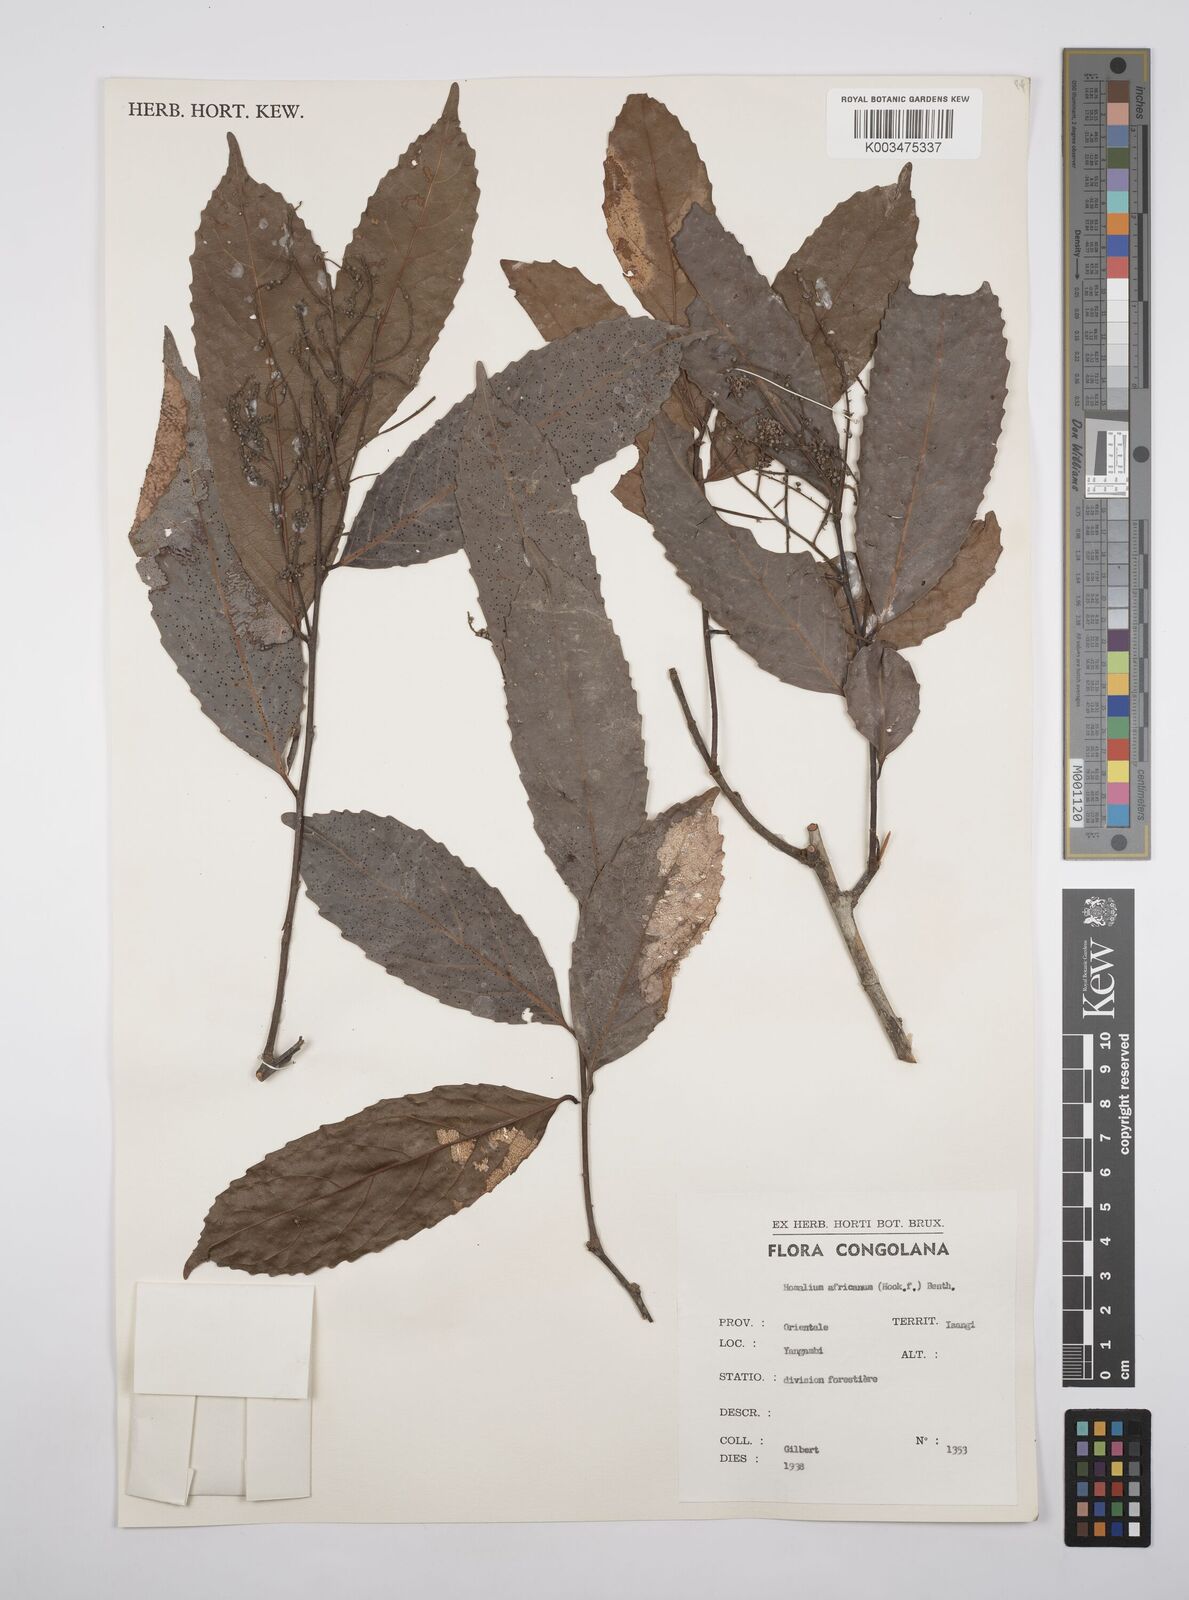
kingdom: Plantae
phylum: Tracheophyta
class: Magnoliopsida
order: Malpighiales
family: Salicaceae
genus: Homalium
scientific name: Homalium africanum
